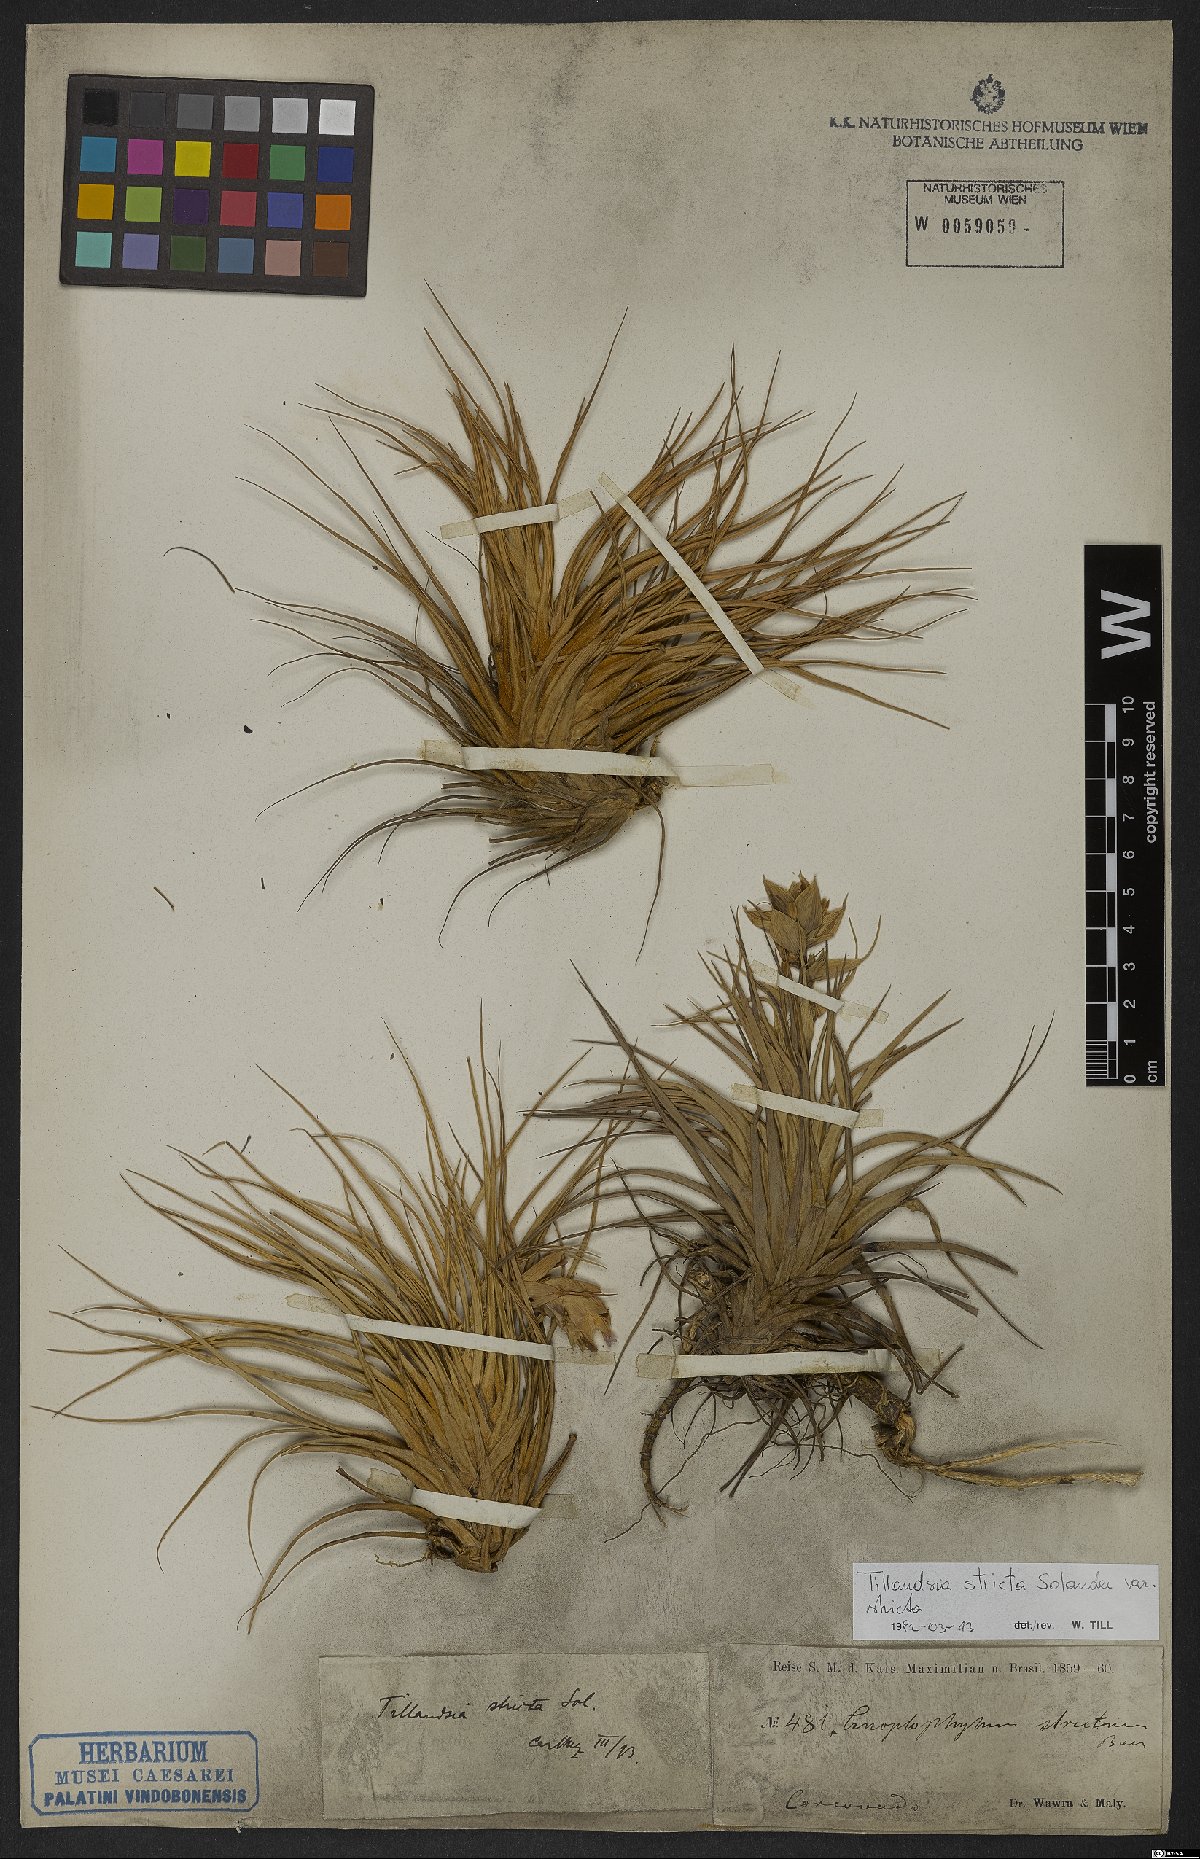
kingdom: Plantae
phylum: Tracheophyta
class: Liliopsida
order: Poales
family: Bromeliaceae
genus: Tillandsia
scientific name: Tillandsia stricta
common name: Airplant
